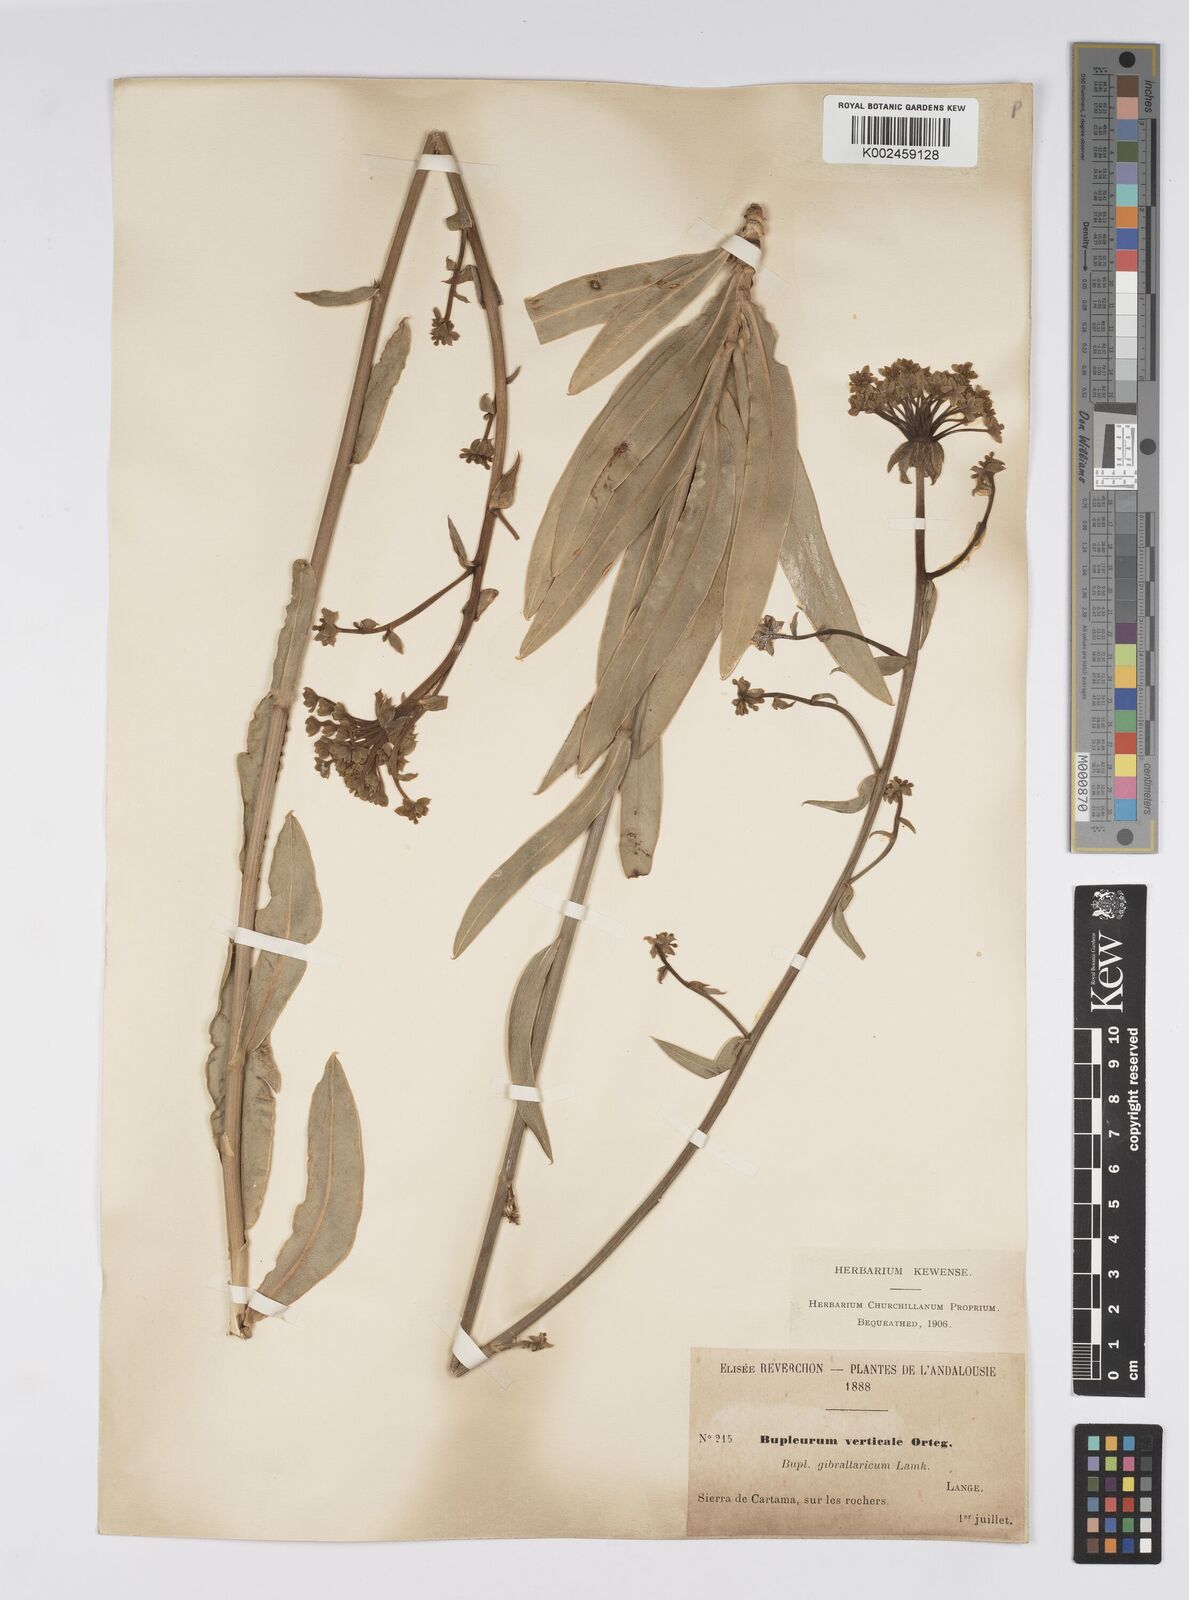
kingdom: Plantae
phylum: Tracheophyta
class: Magnoliopsida
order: Apiales
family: Apiaceae
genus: Bupleurum
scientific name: Bupleurum gibraltaricum
